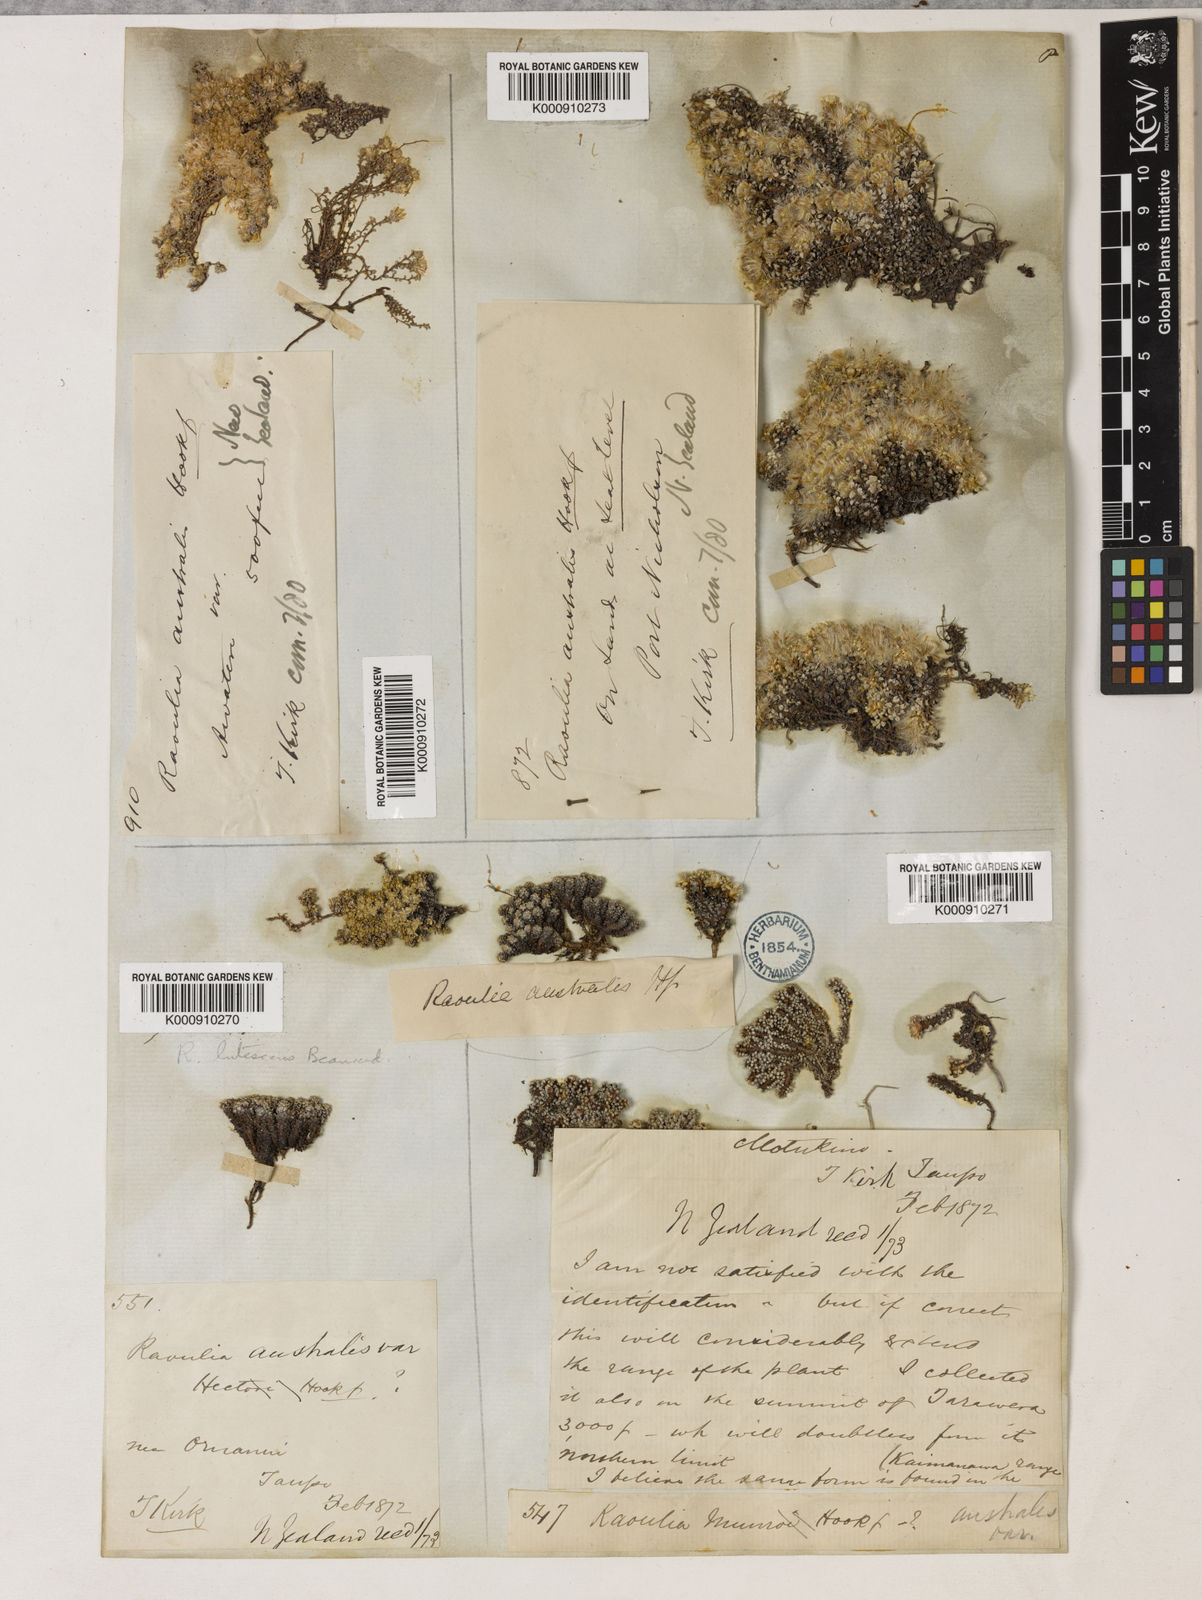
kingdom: Plantae
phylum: Tracheophyta
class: Magnoliopsida
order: Asterales
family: Asteraceae
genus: Raoulia
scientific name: Raoulia
